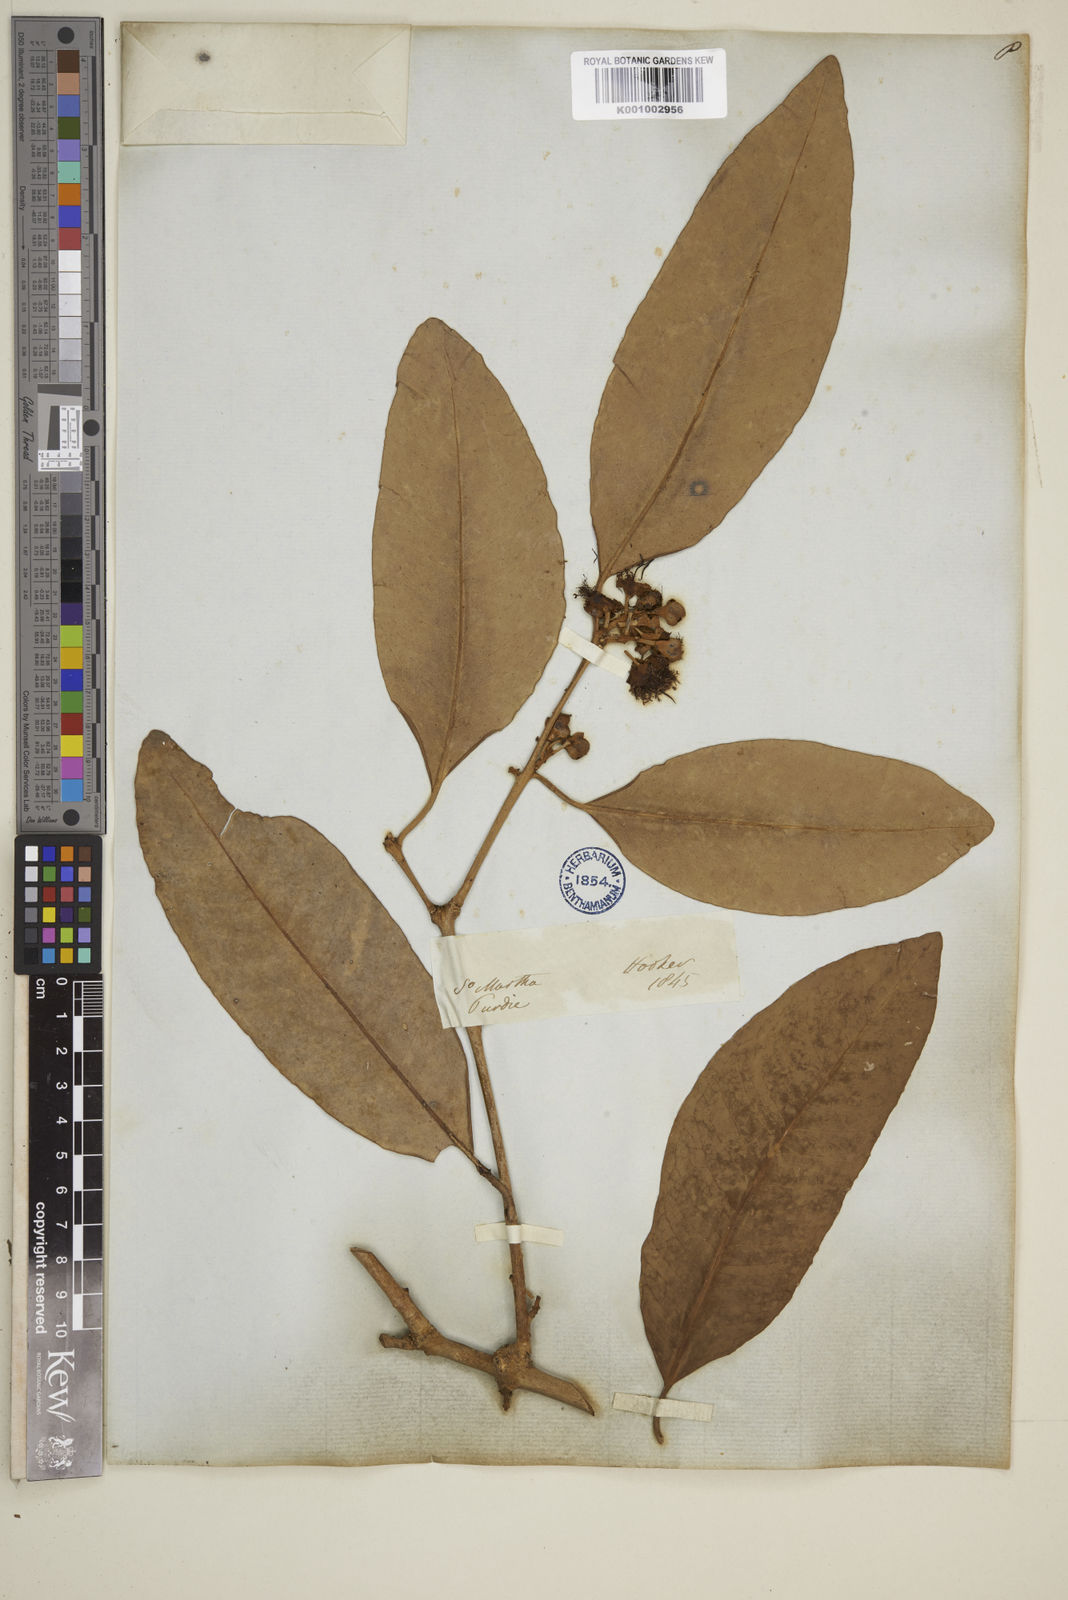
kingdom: Plantae
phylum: Tracheophyta
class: Magnoliopsida
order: Myrtales
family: Myrtaceae
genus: Syzygium
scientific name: Syzygium maingayi
